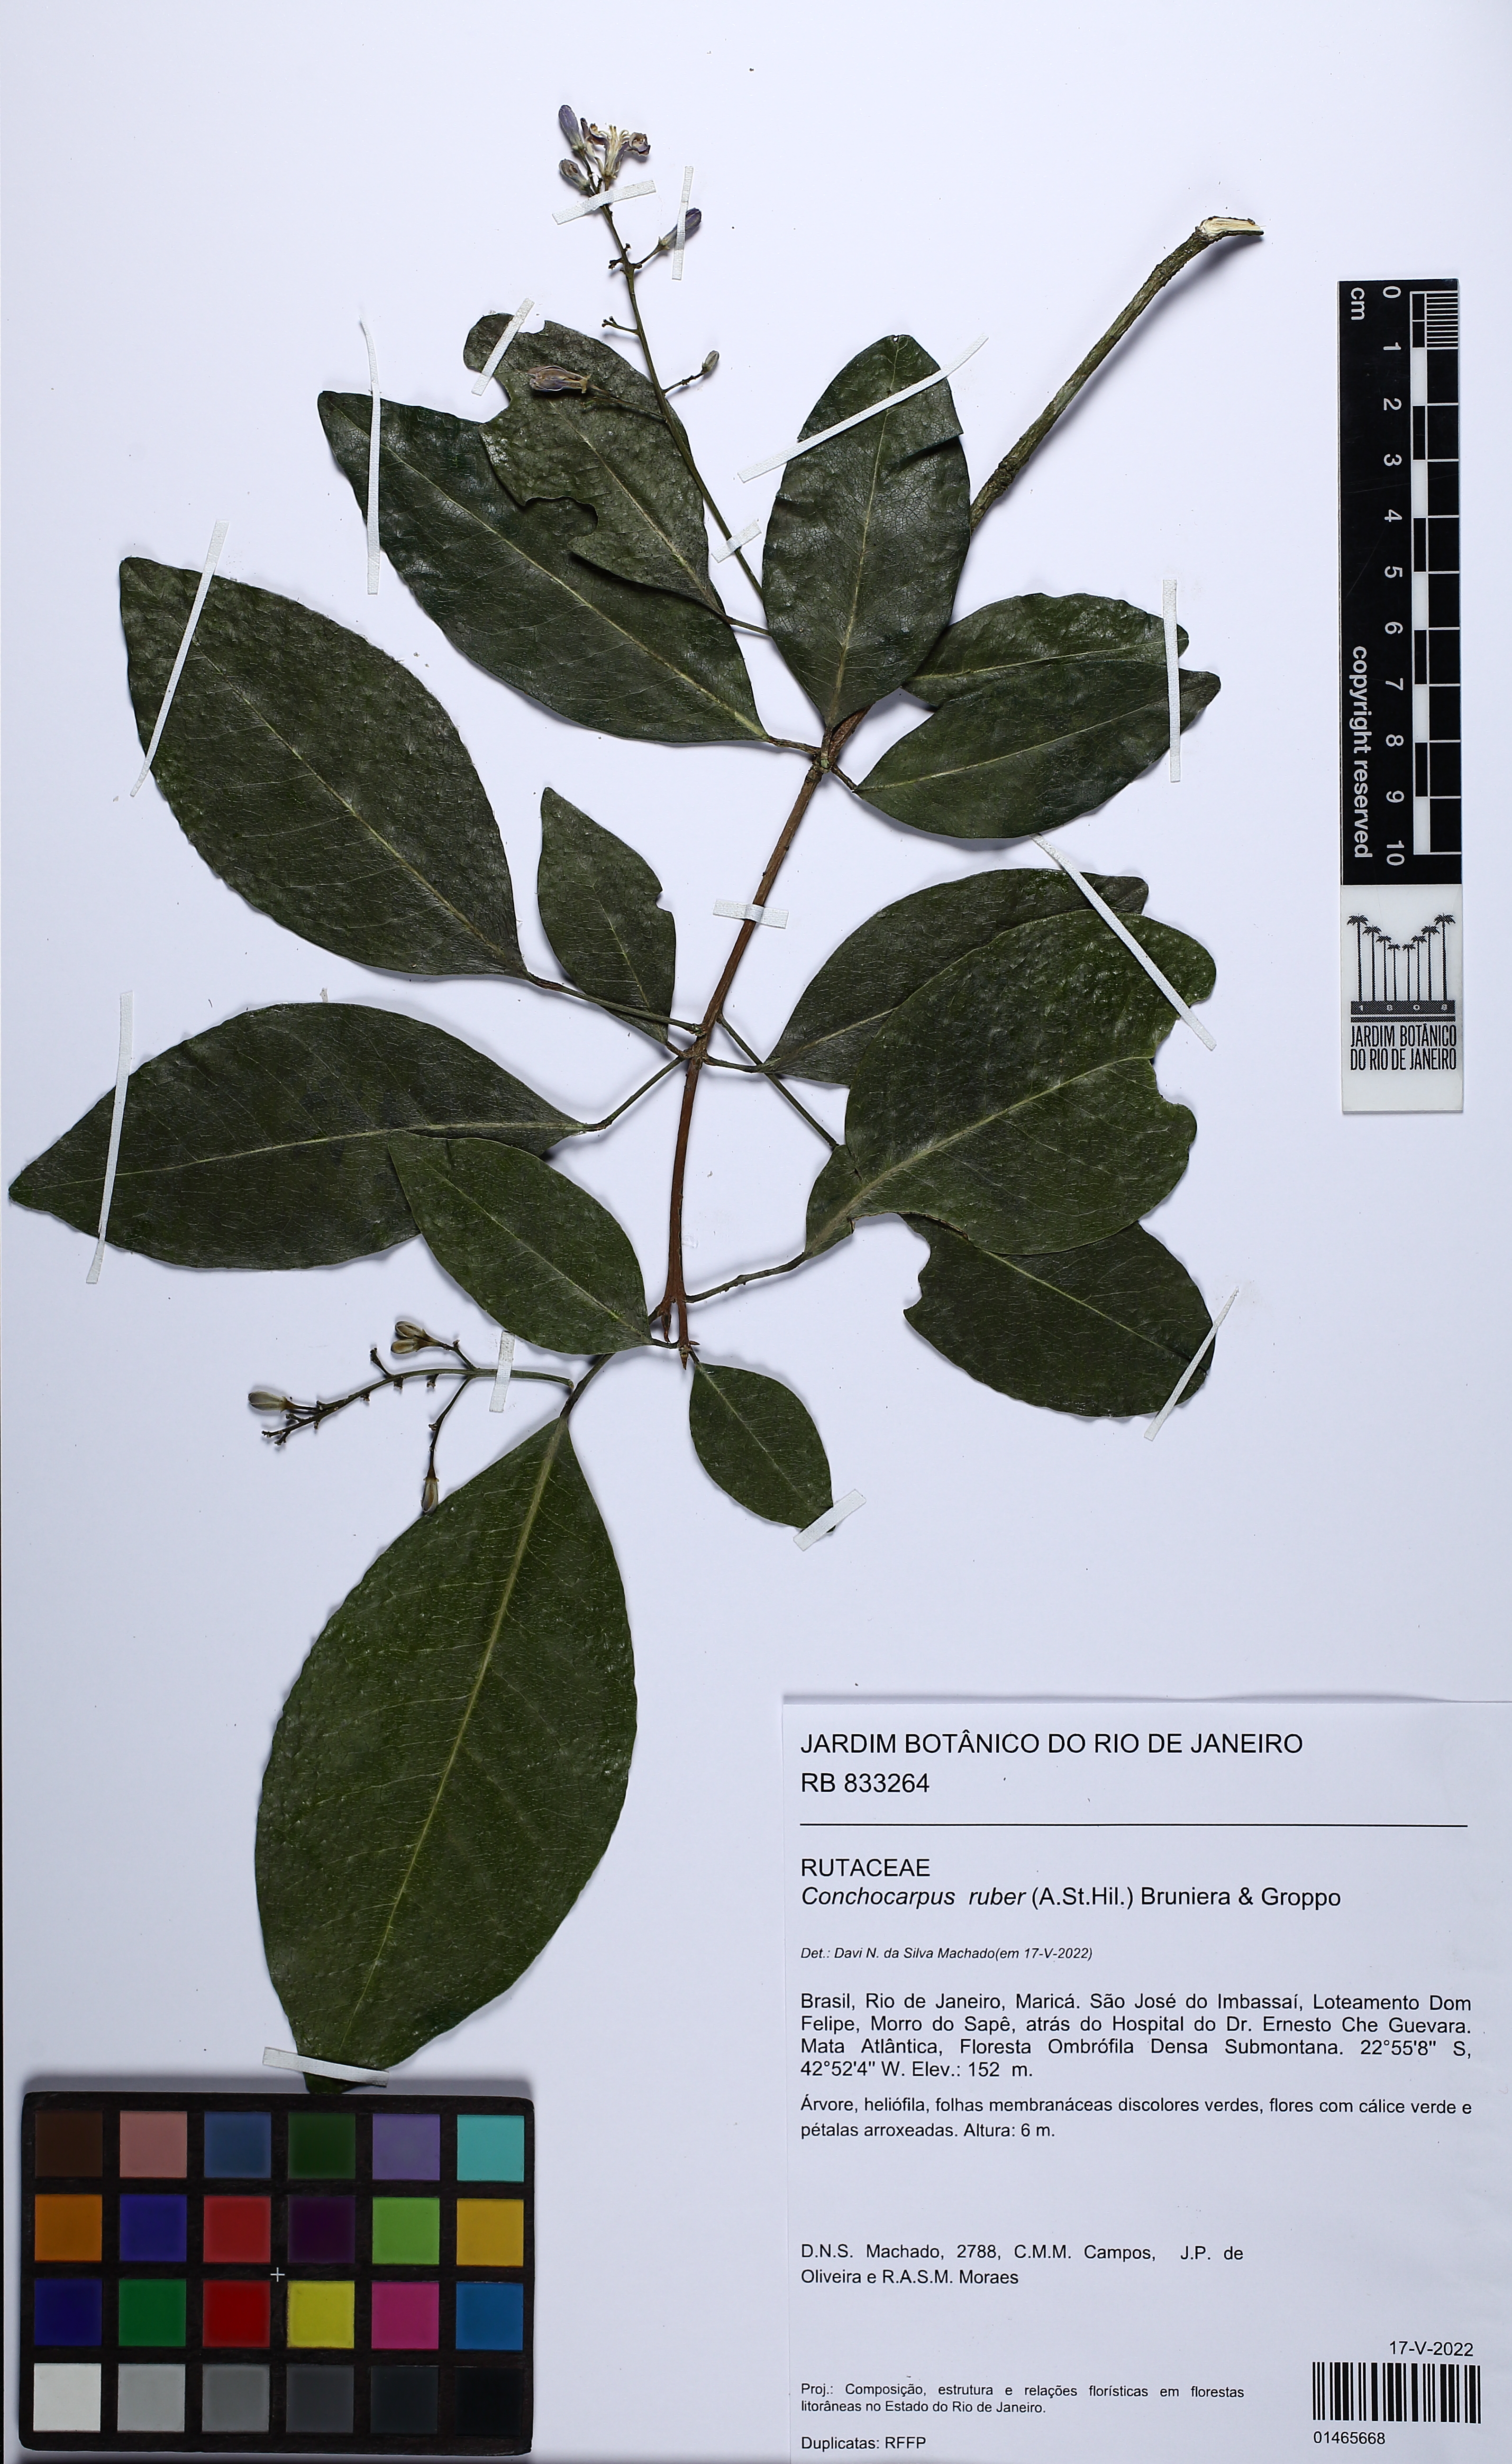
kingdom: Plantae
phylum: Tracheophyta
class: Magnoliopsida
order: Sapindales
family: Rutaceae
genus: Conchocarpus
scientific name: Conchocarpus ruber
